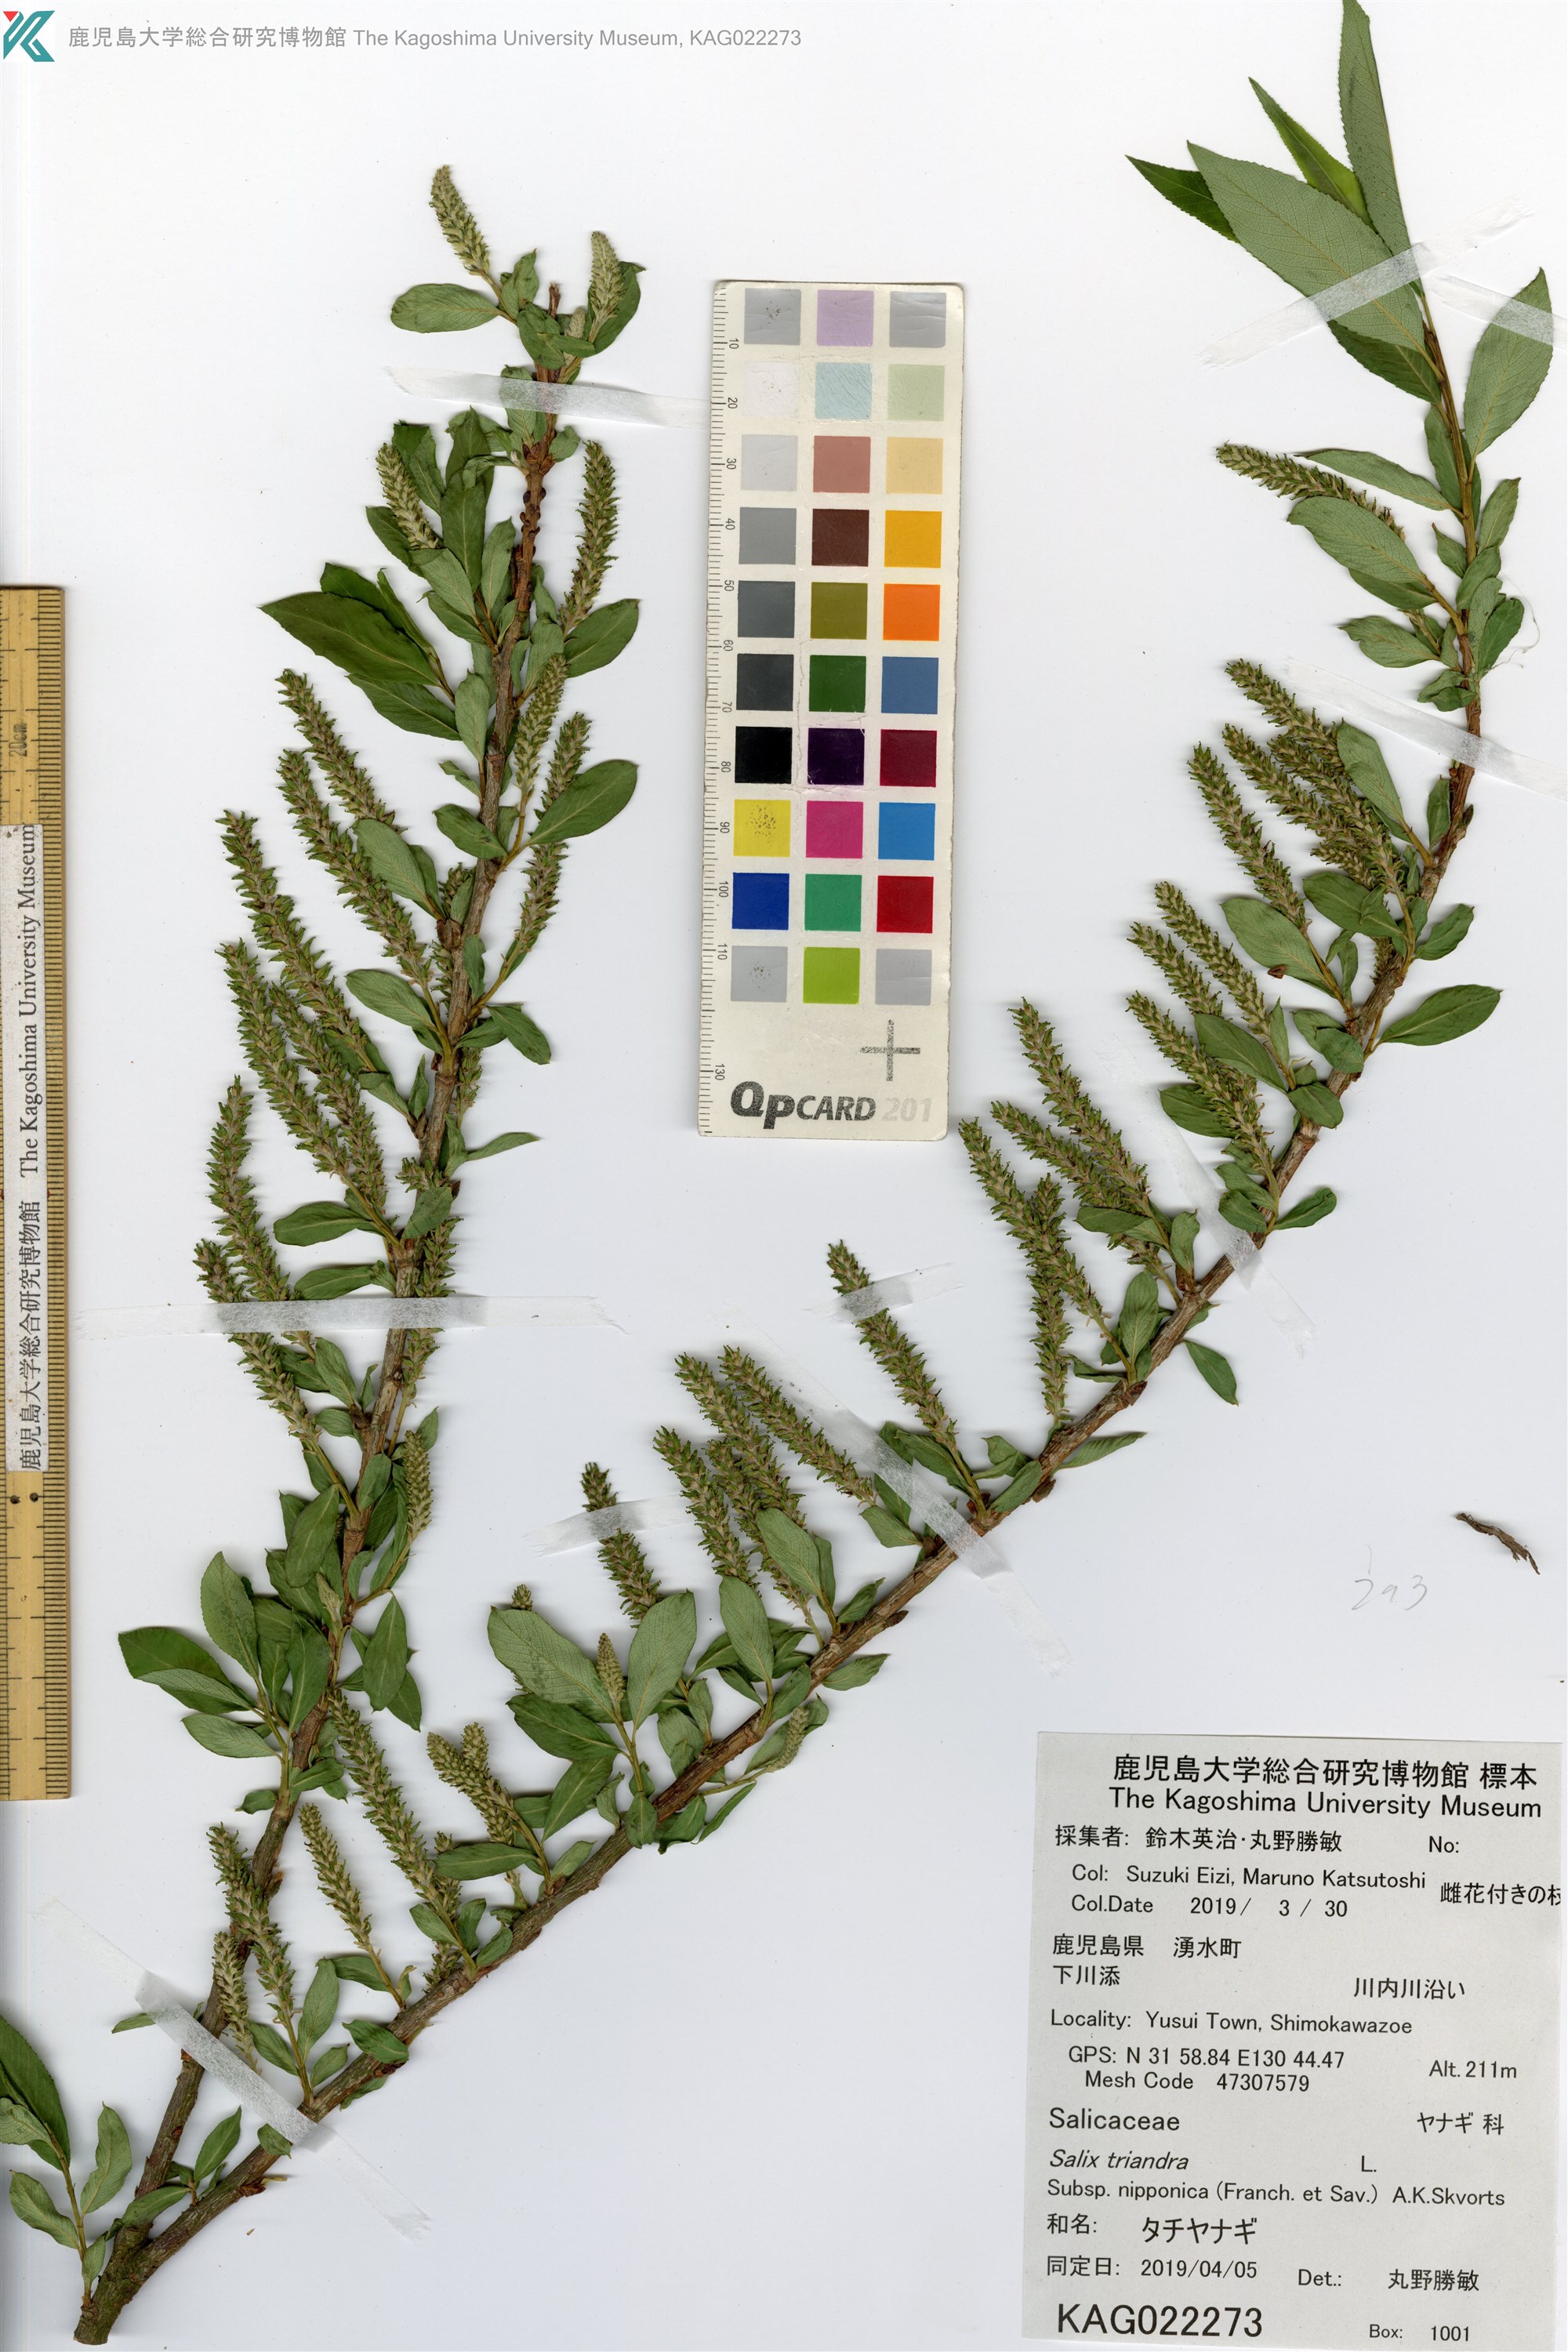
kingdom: Plantae
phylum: Tracheophyta
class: Magnoliopsida
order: Malpighiales
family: Salicaceae
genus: Salix
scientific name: Salix triandra
